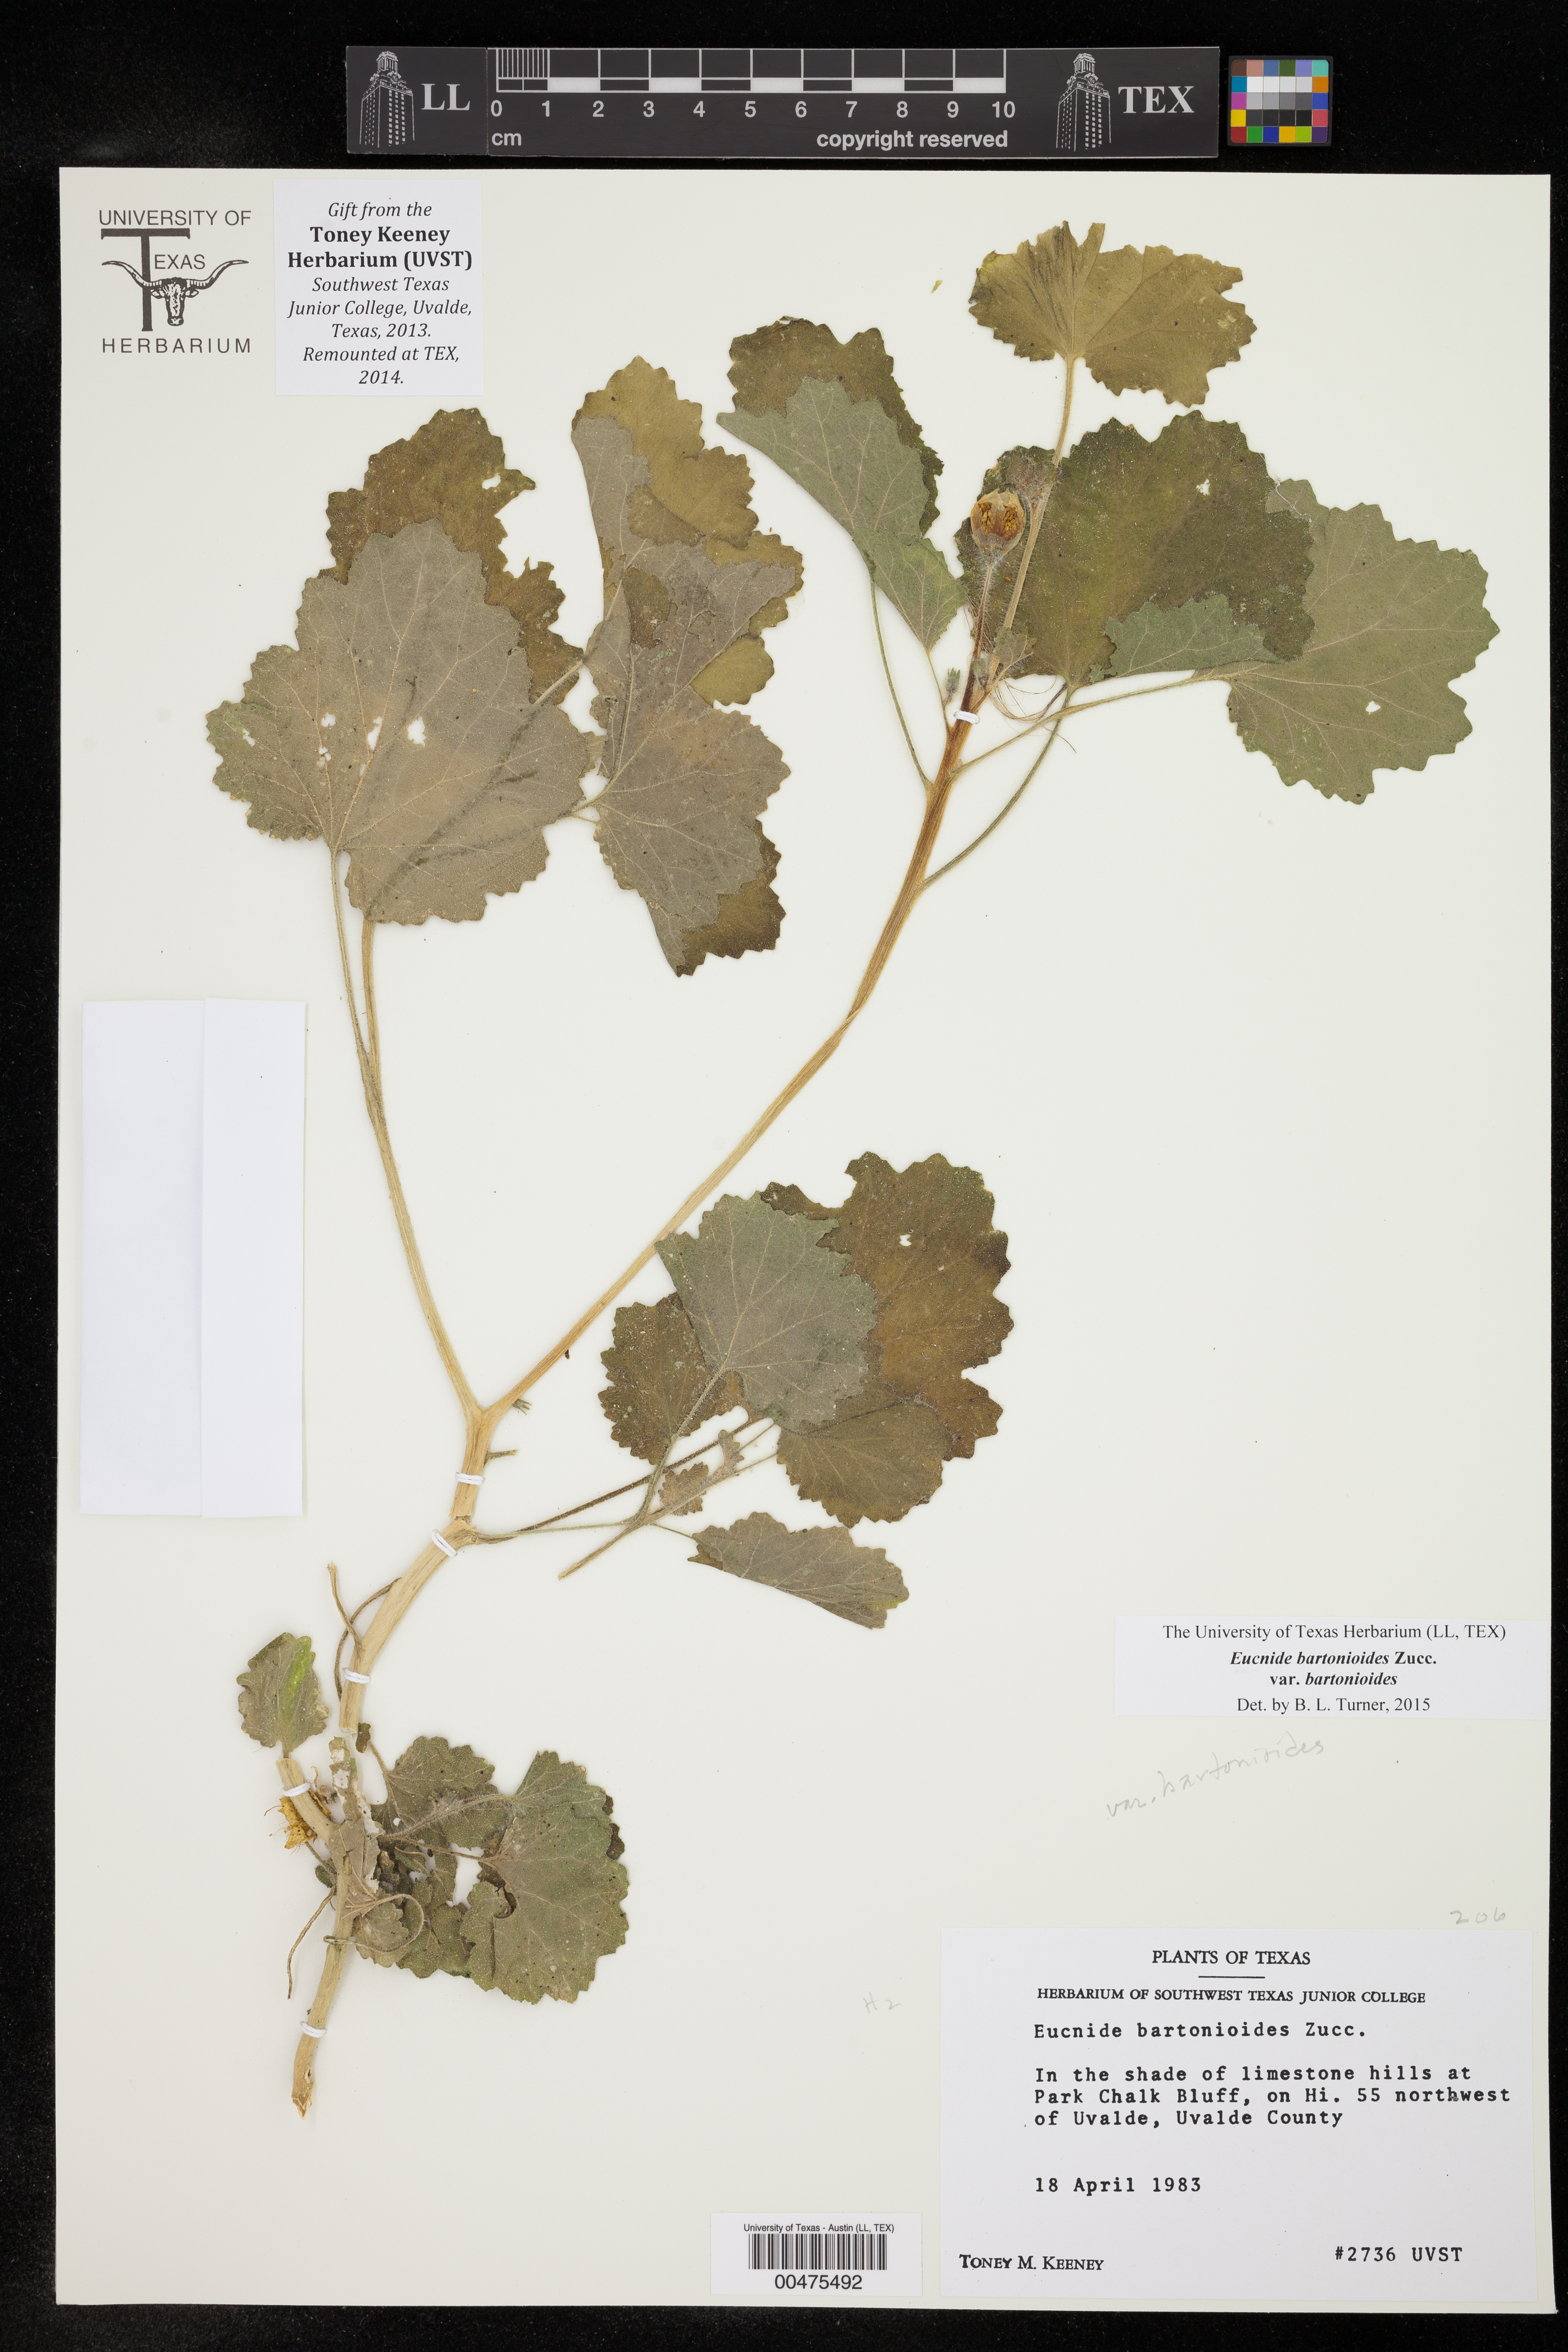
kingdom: Plantae
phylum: Tracheophyta
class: Magnoliopsida
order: Cornales
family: Loasaceae
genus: Eucnide
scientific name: Eucnide bartonioides
